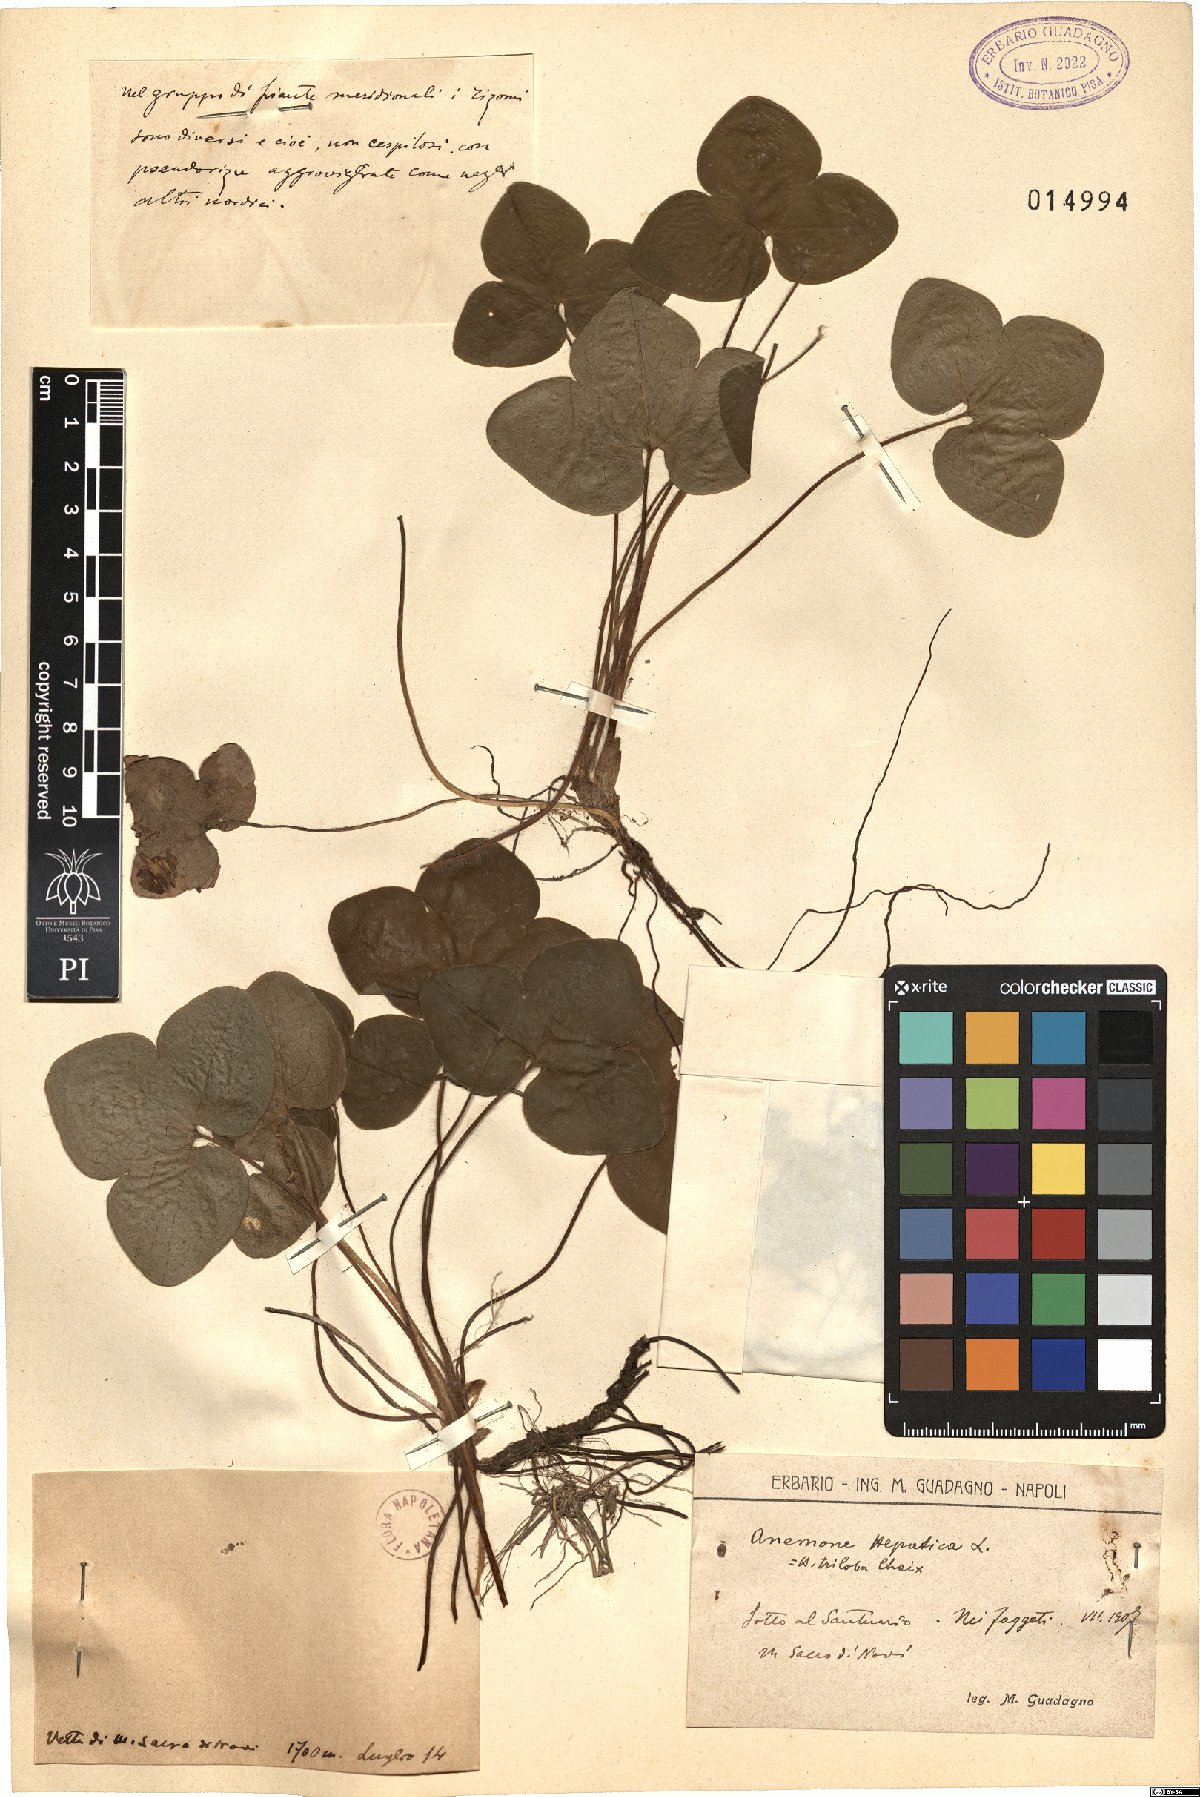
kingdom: Plantae
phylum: Tracheophyta
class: Magnoliopsida
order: Ranunculales
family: Ranunculaceae
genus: Hepatica
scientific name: Hepatica nobilis
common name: Liverleaf
